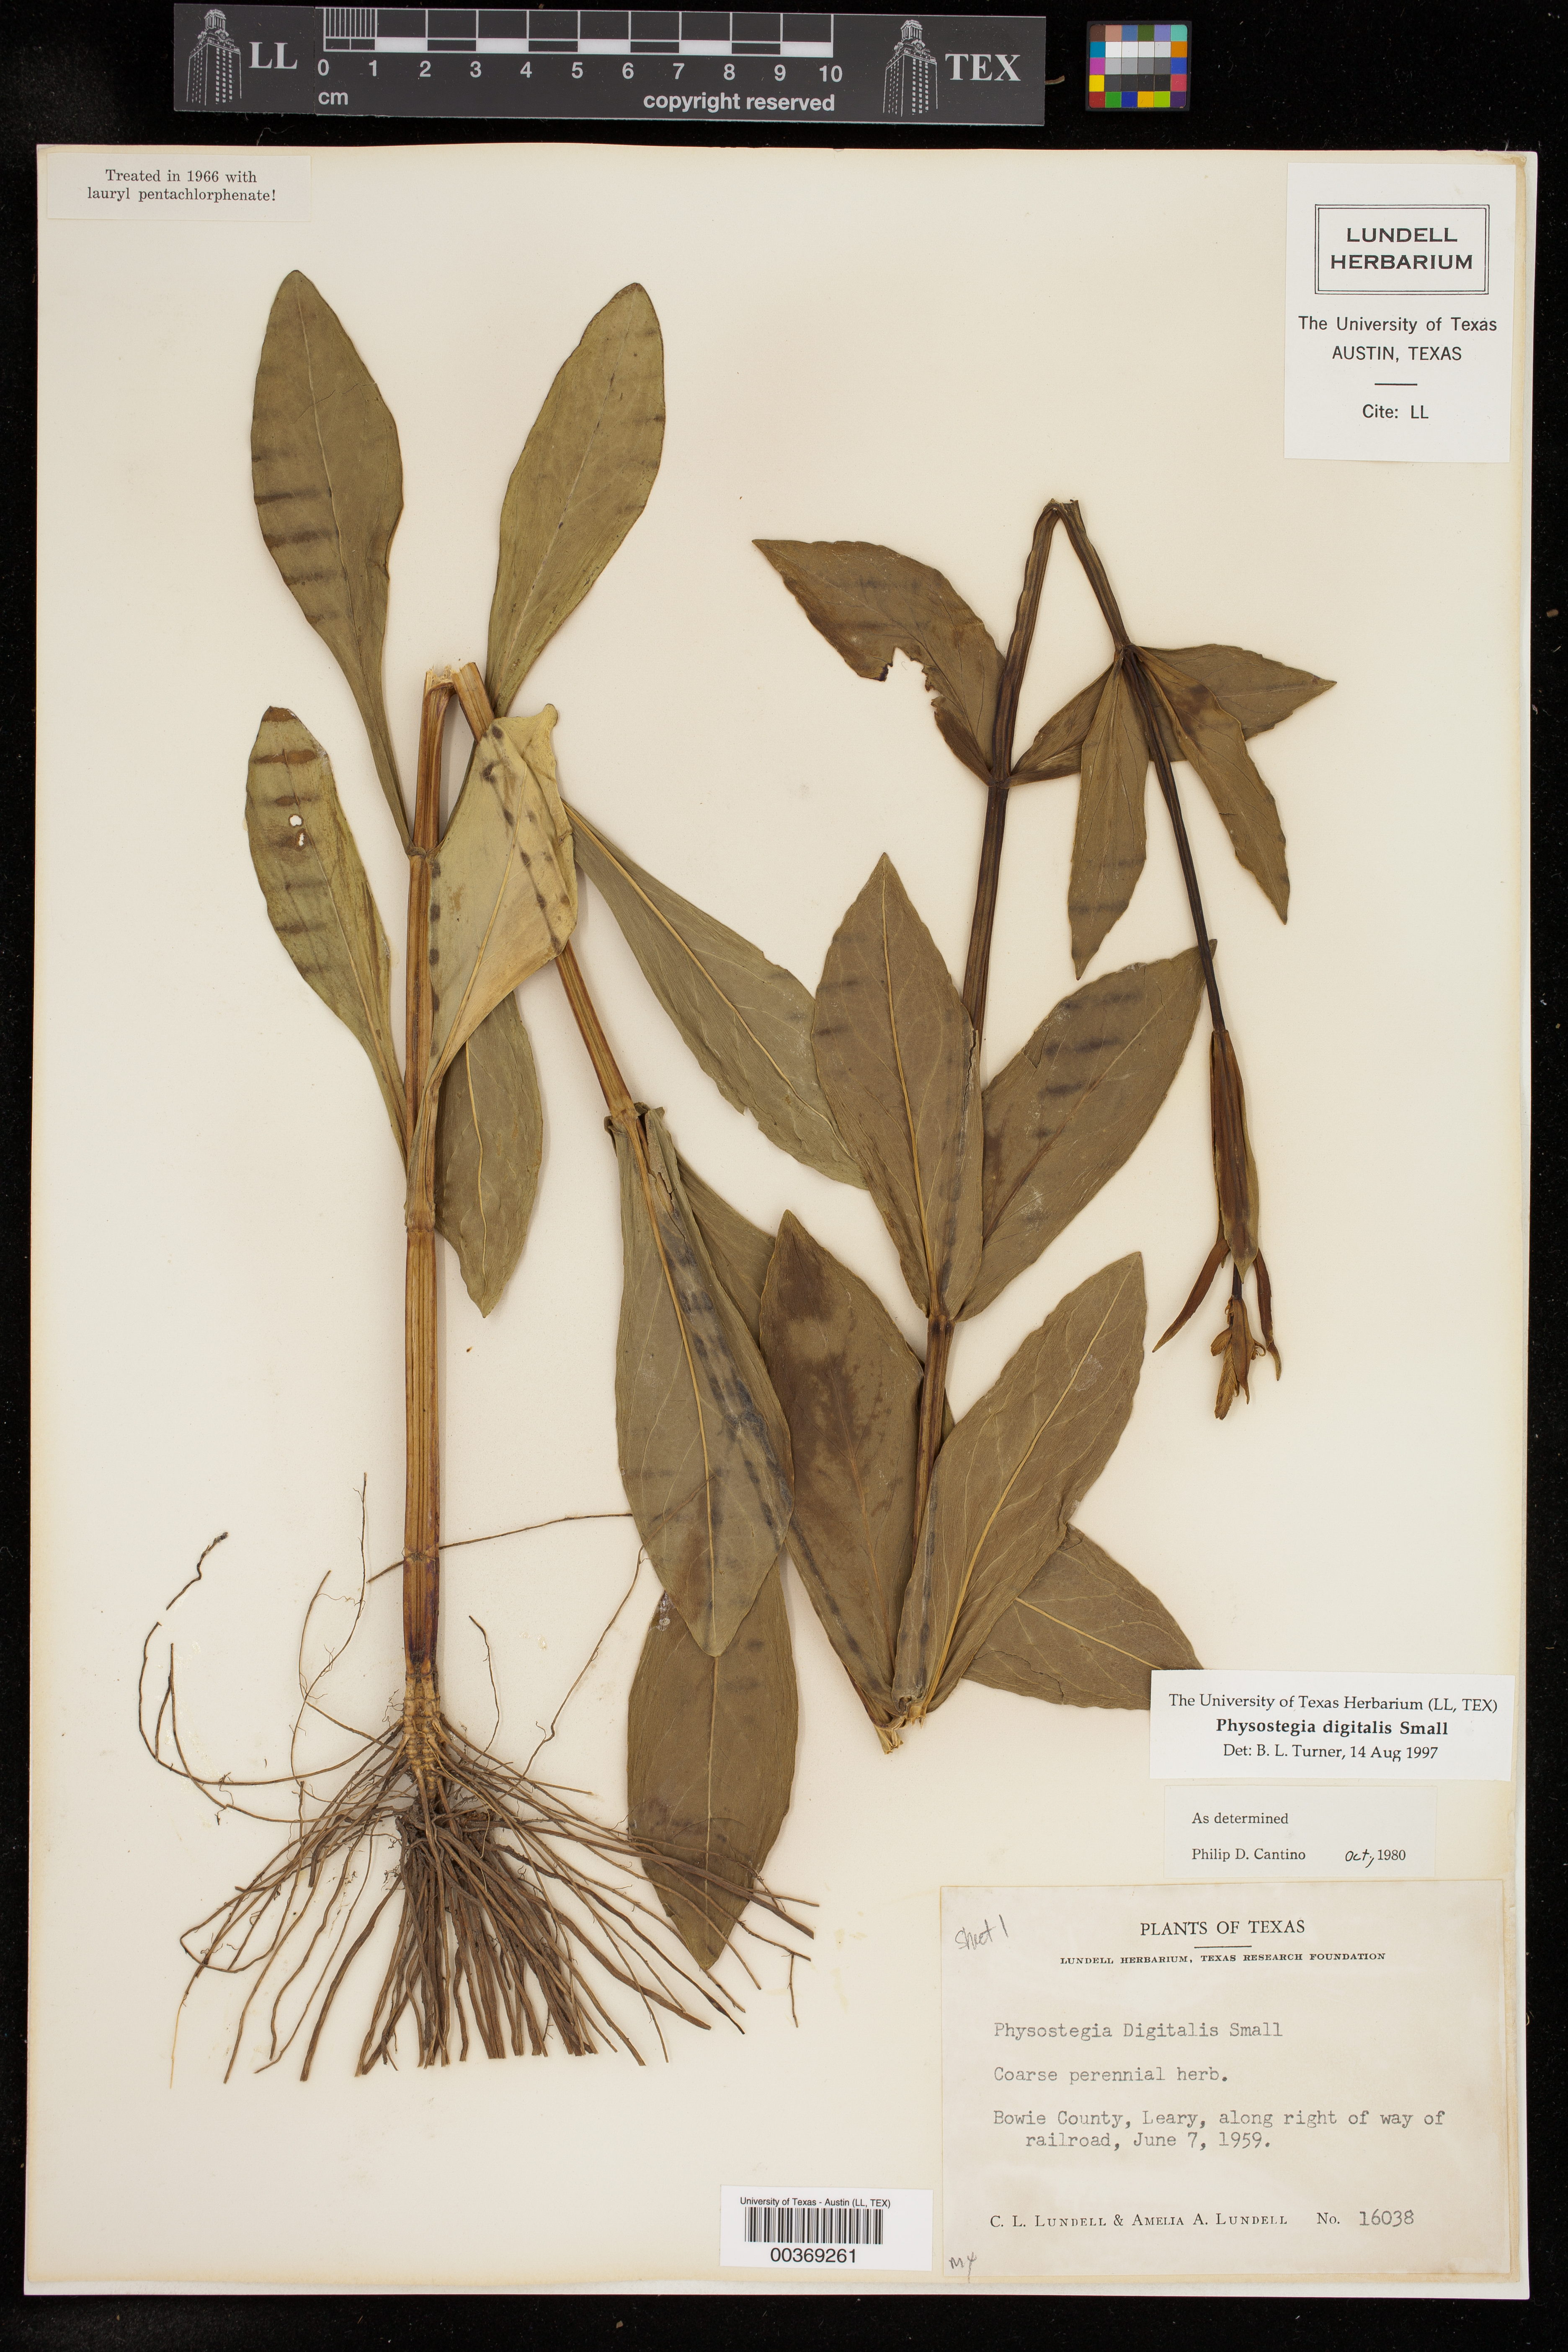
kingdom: Plantae
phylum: Tracheophyta
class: Magnoliopsida
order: Lamiales
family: Lamiaceae
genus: Physostegia
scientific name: Physostegia digitalis
